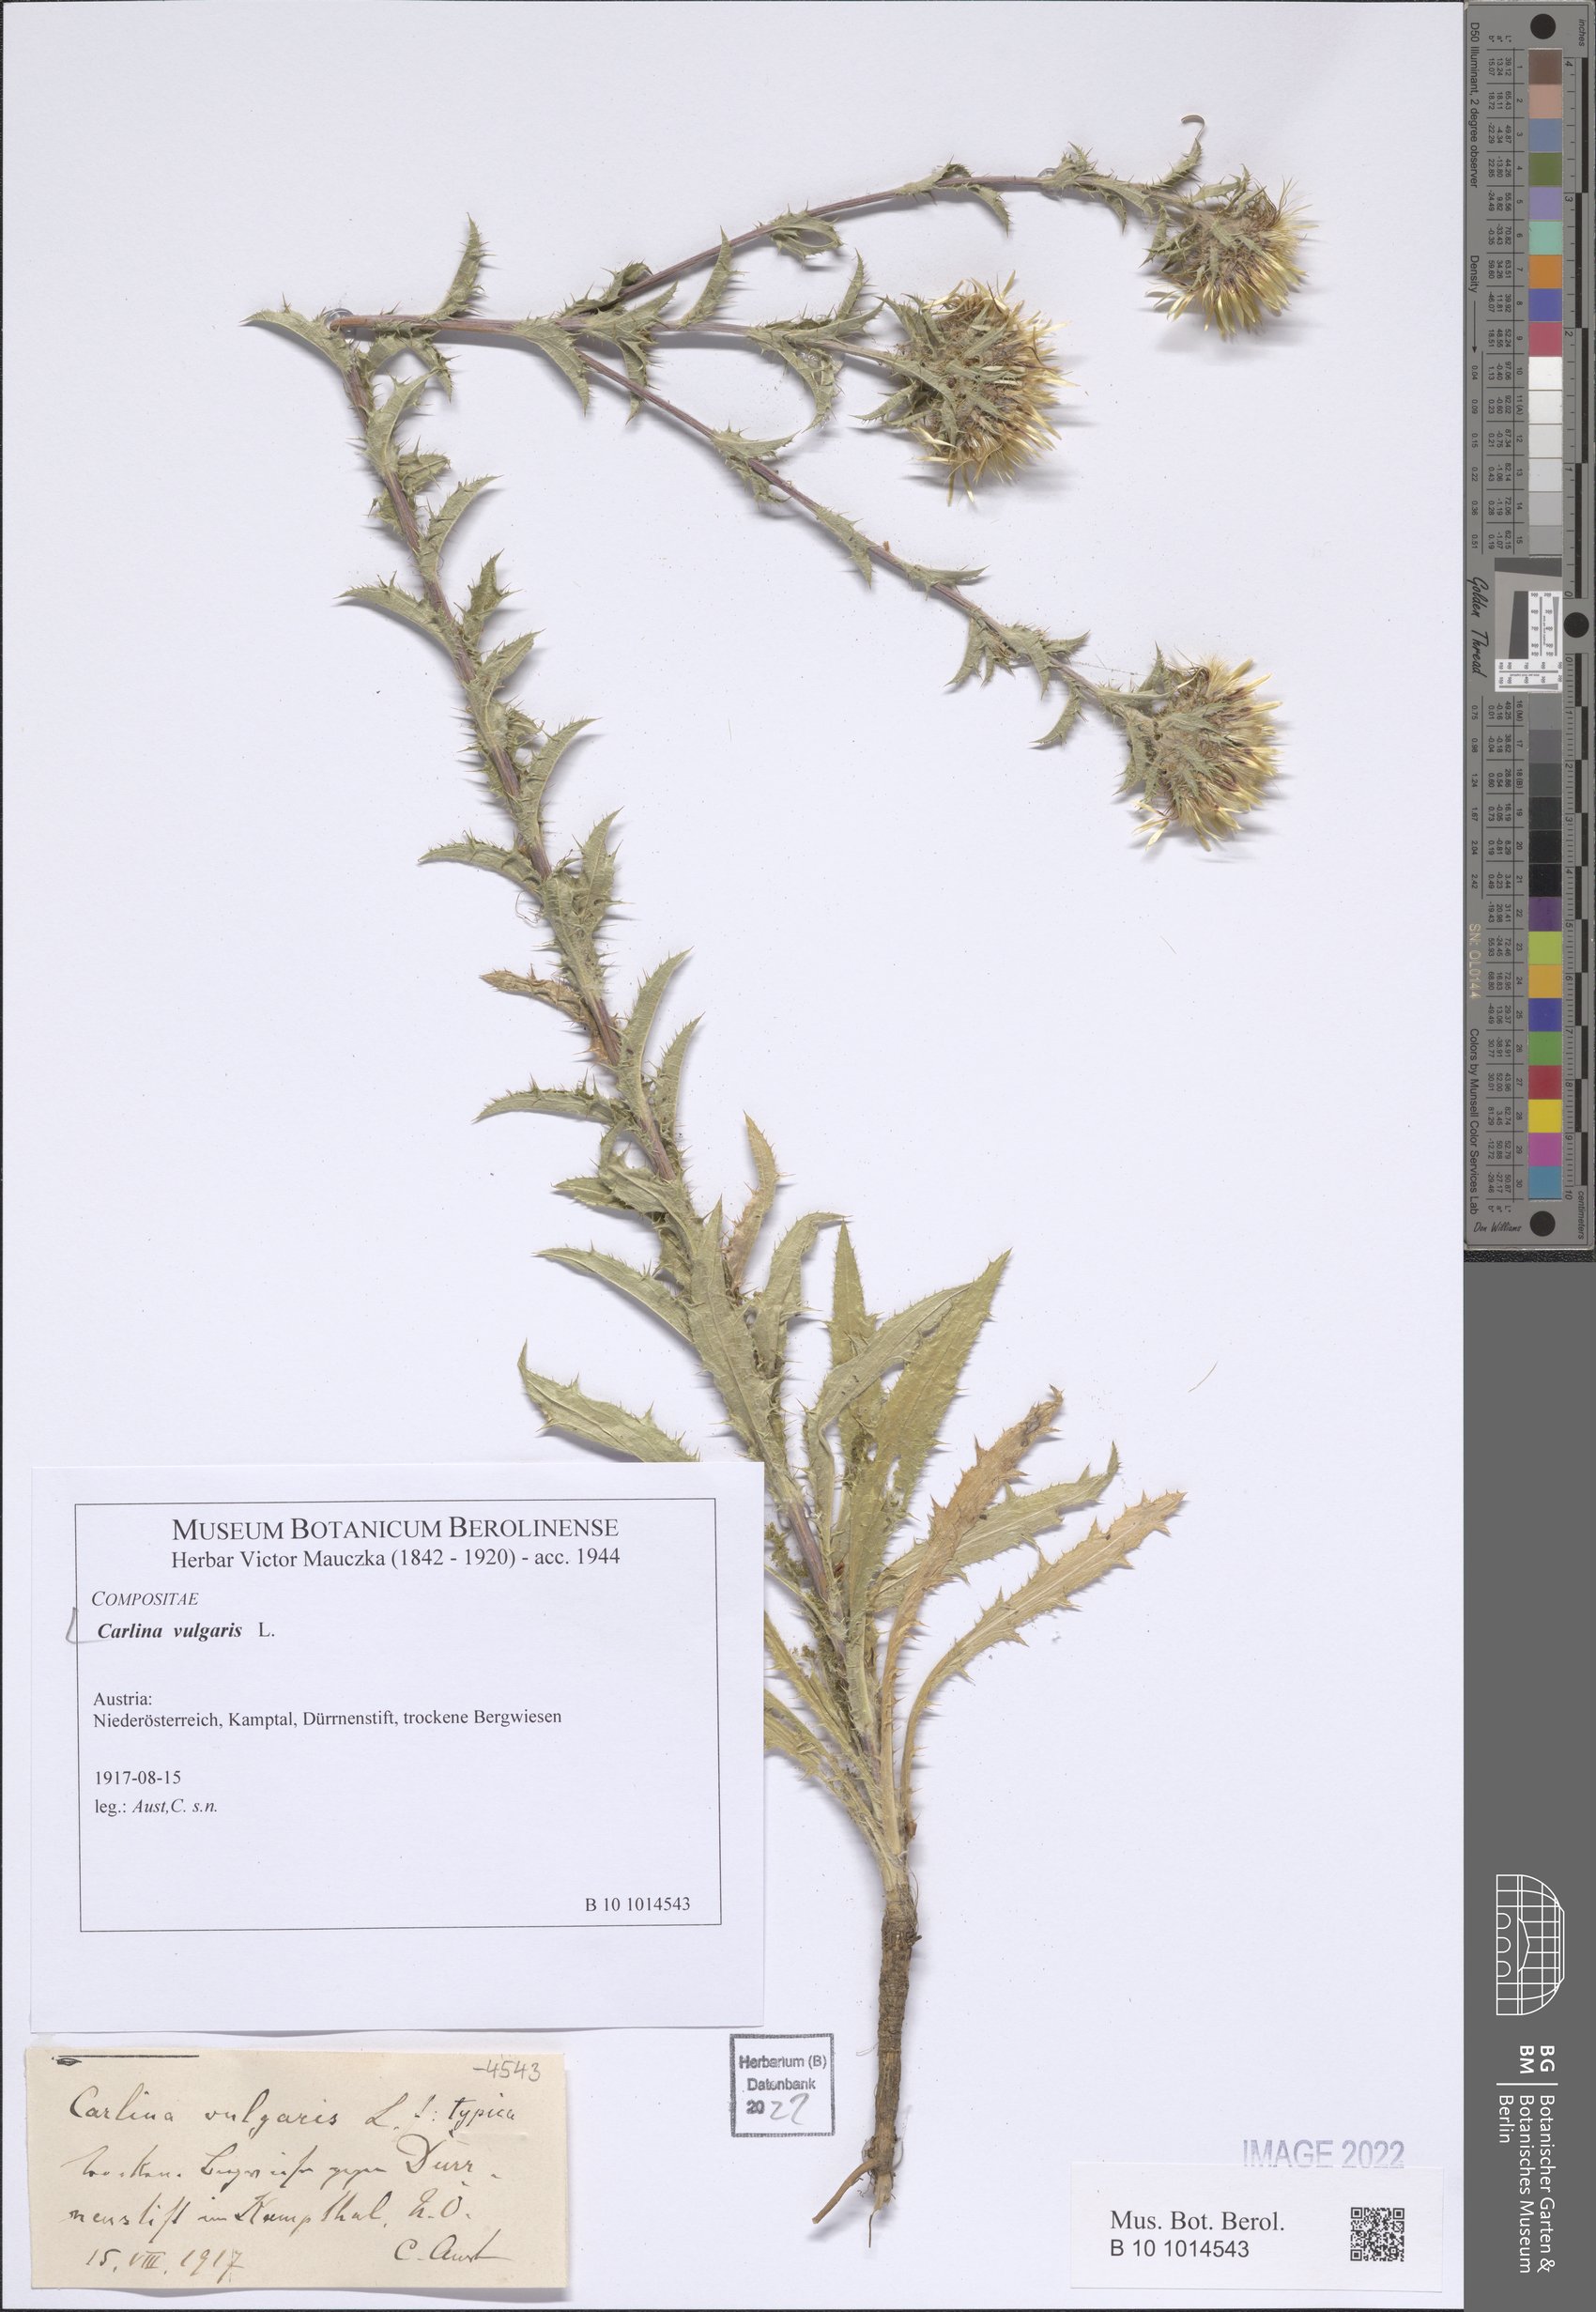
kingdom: Plantae
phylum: Tracheophyta
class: Magnoliopsida
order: Asterales
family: Asteraceae
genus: Carlina
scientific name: Carlina vulgaris
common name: Carline thistle
